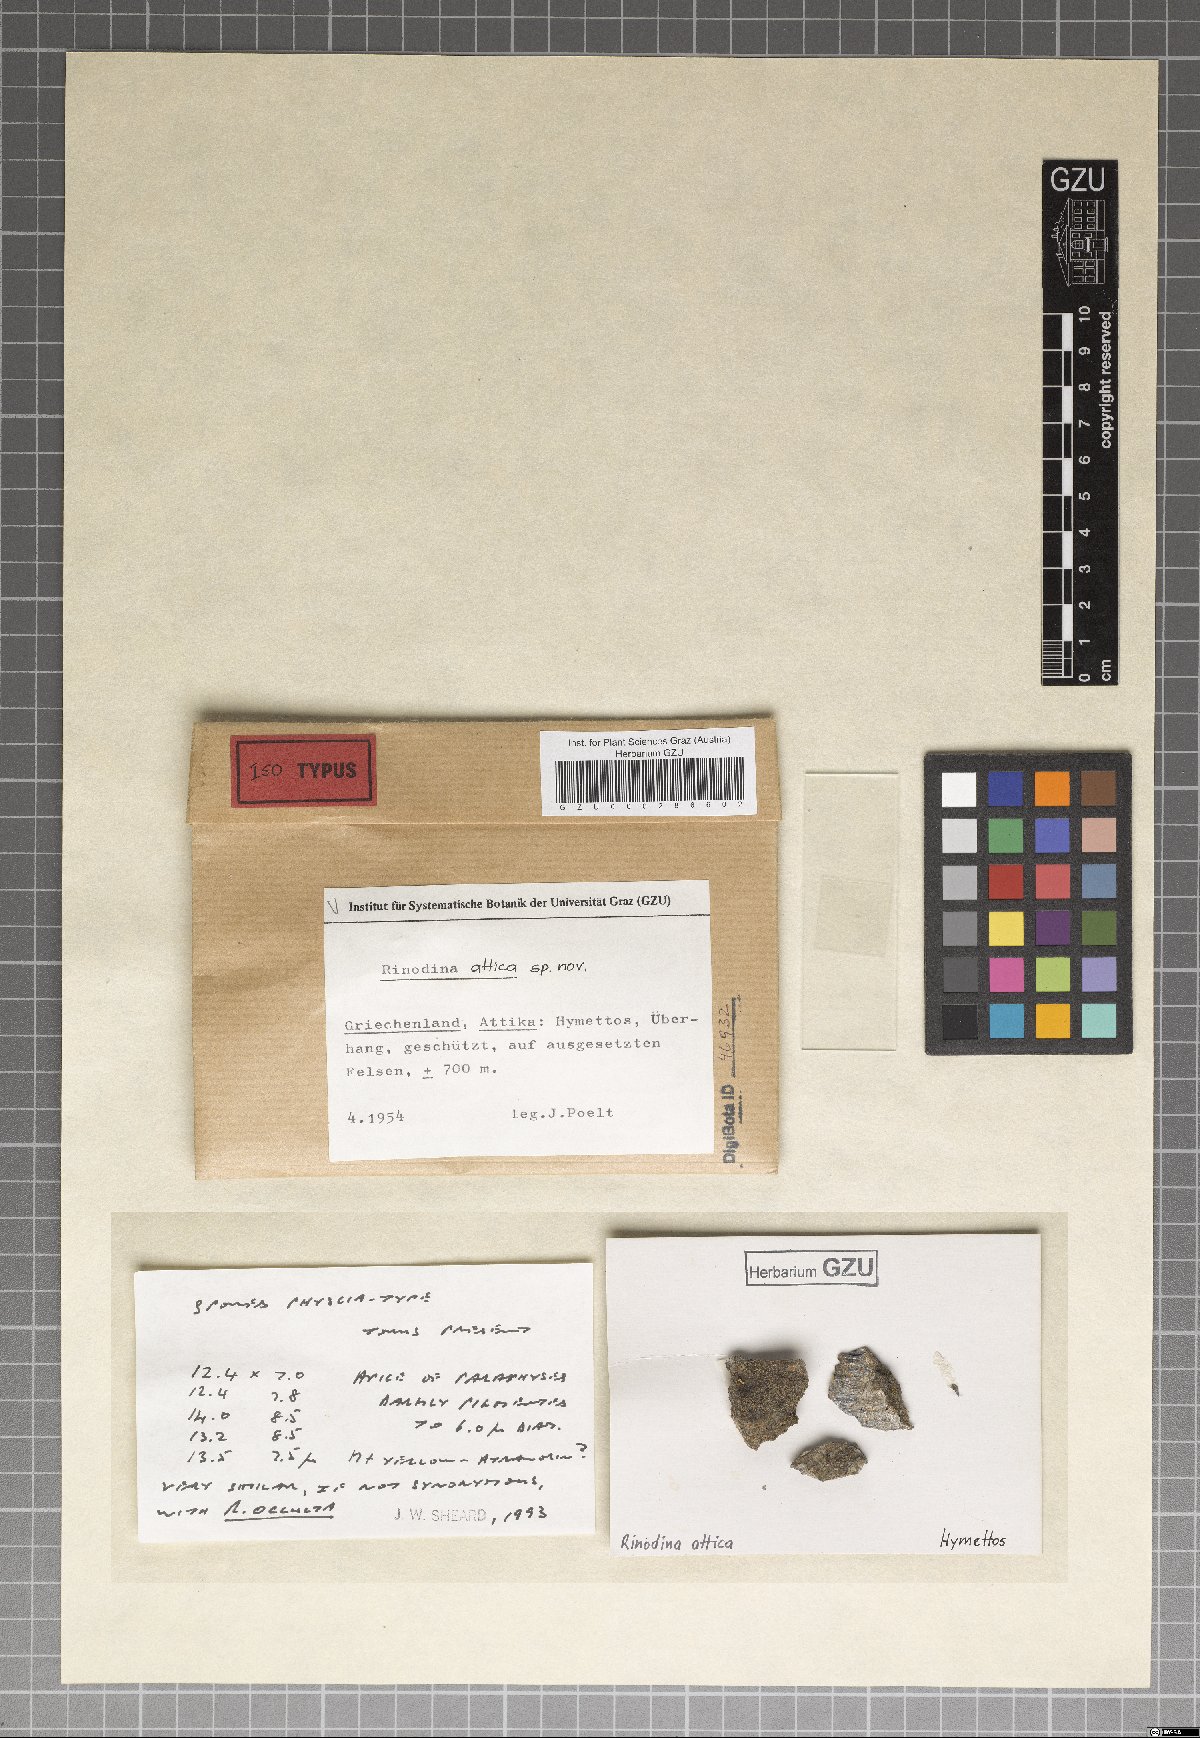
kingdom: Fungi
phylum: Ascomycota
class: Lecanoromycetes
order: Caliciales
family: Physciaceae
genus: Rinodina
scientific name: Rinodina
